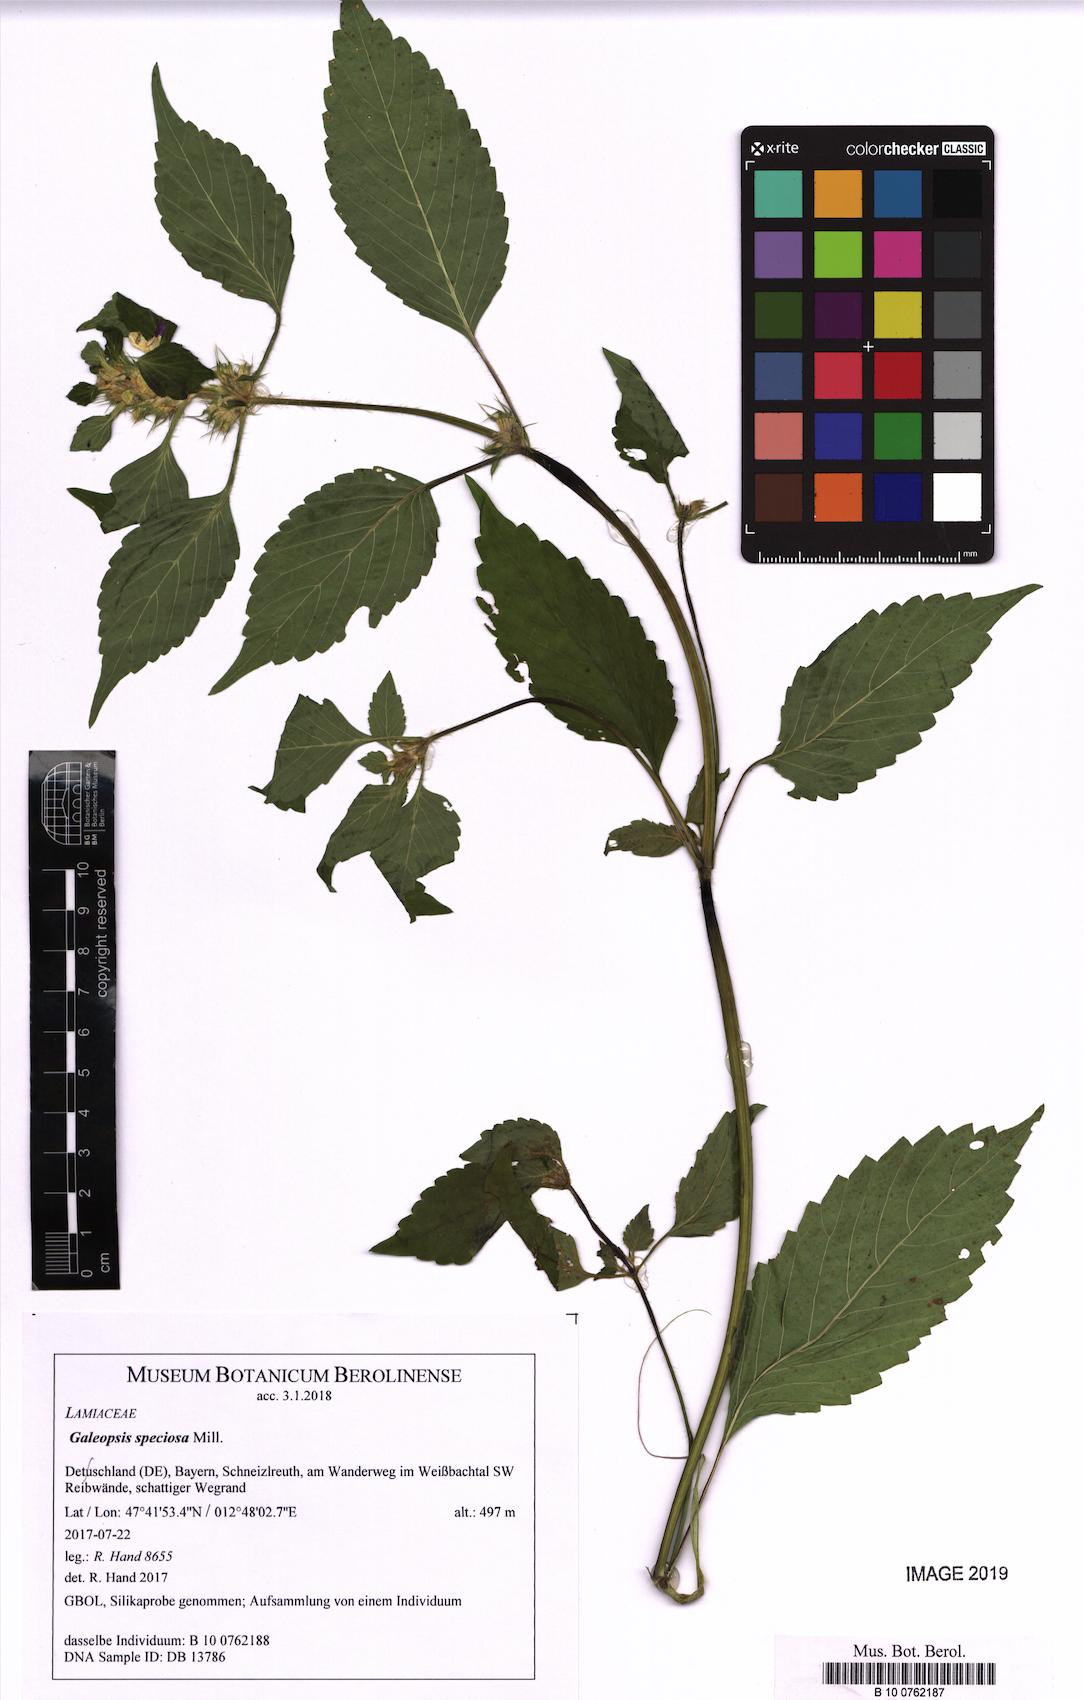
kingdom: Plantae
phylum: Tracheophyta
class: Magnoliopsida
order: Lamiales
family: Lamiaceae
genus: Galeopsis
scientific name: Galeopsis speciosa
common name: Large-flowered hemp-nettle
